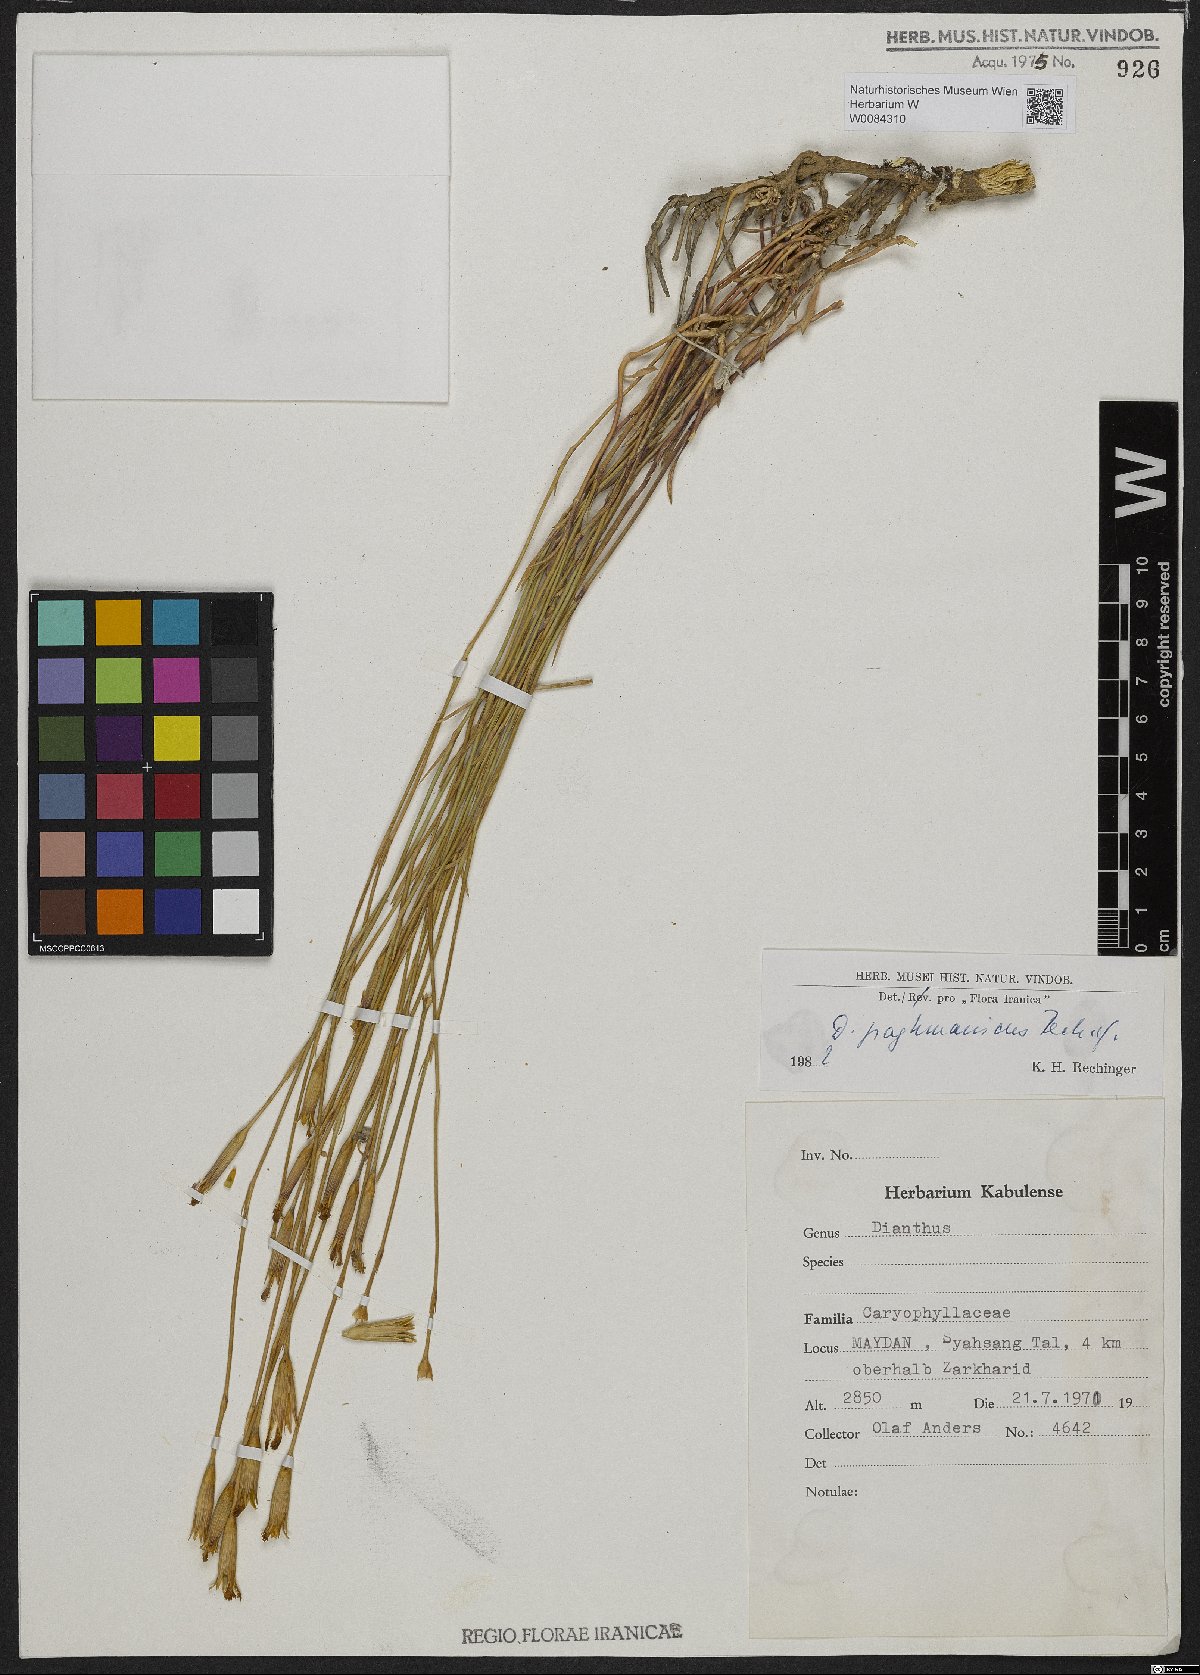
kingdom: Plantae
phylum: Tracheophyta
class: Magnoliopsida
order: Caryophyllales
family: Caryophyllaceae
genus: Dianthus
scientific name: Dianthus paghmanicus
